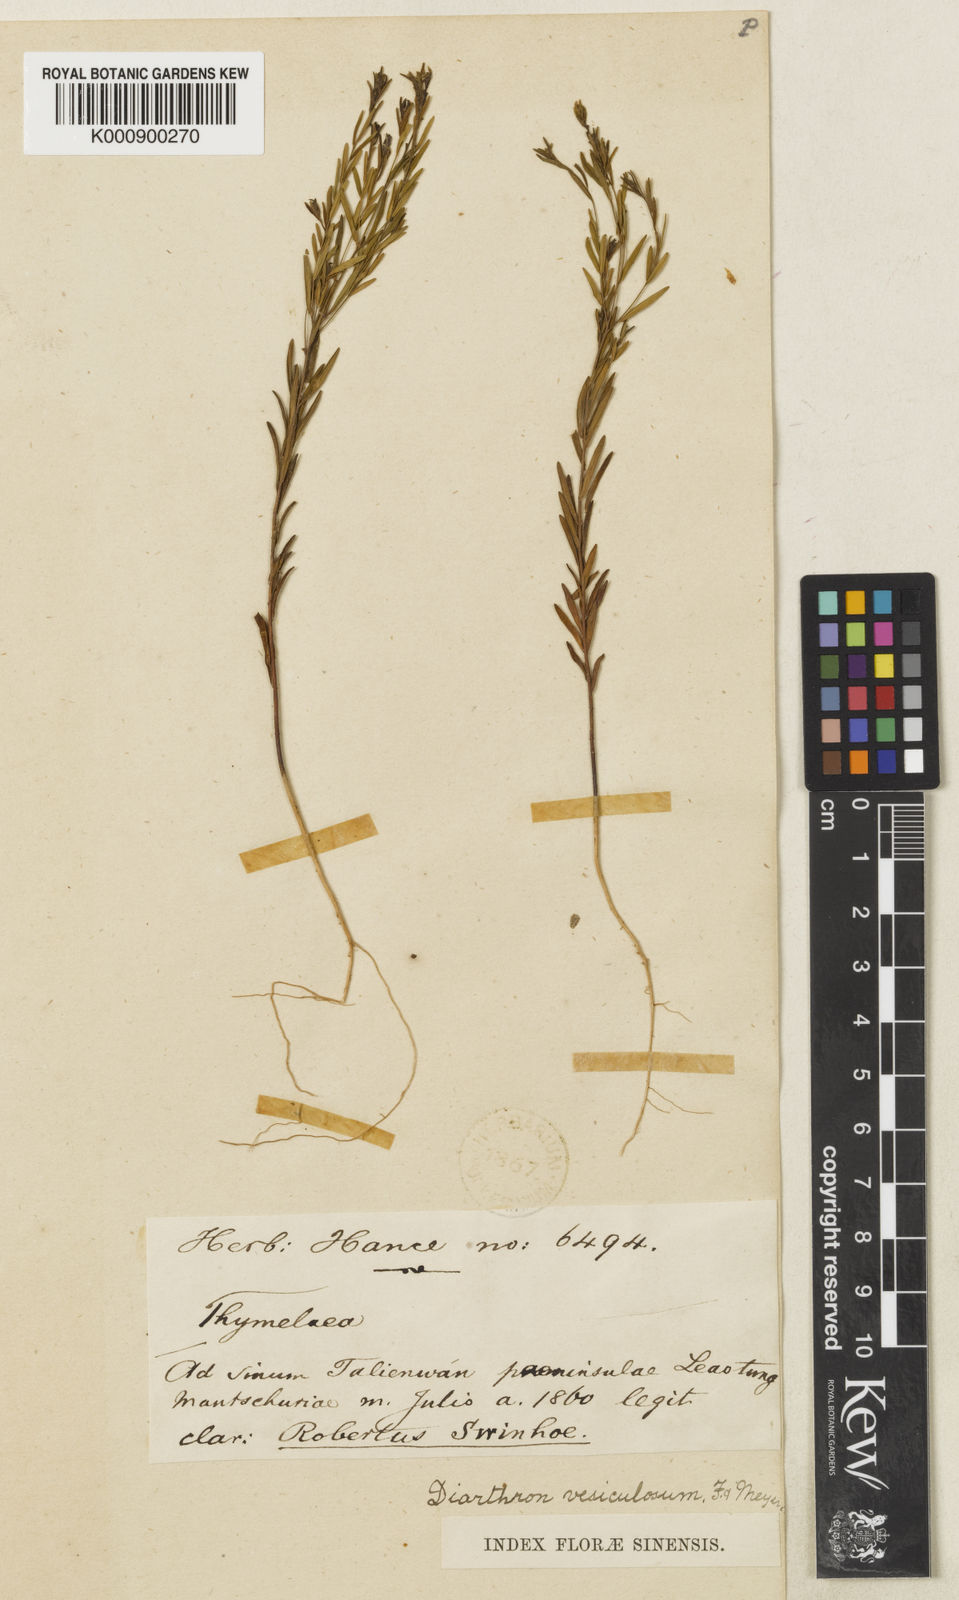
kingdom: Plantae
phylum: Tracheophyta
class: Magnoliopsida
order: Malvales
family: Thymelaeaceae
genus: Diarthron
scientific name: Diarthron vesiculosum
